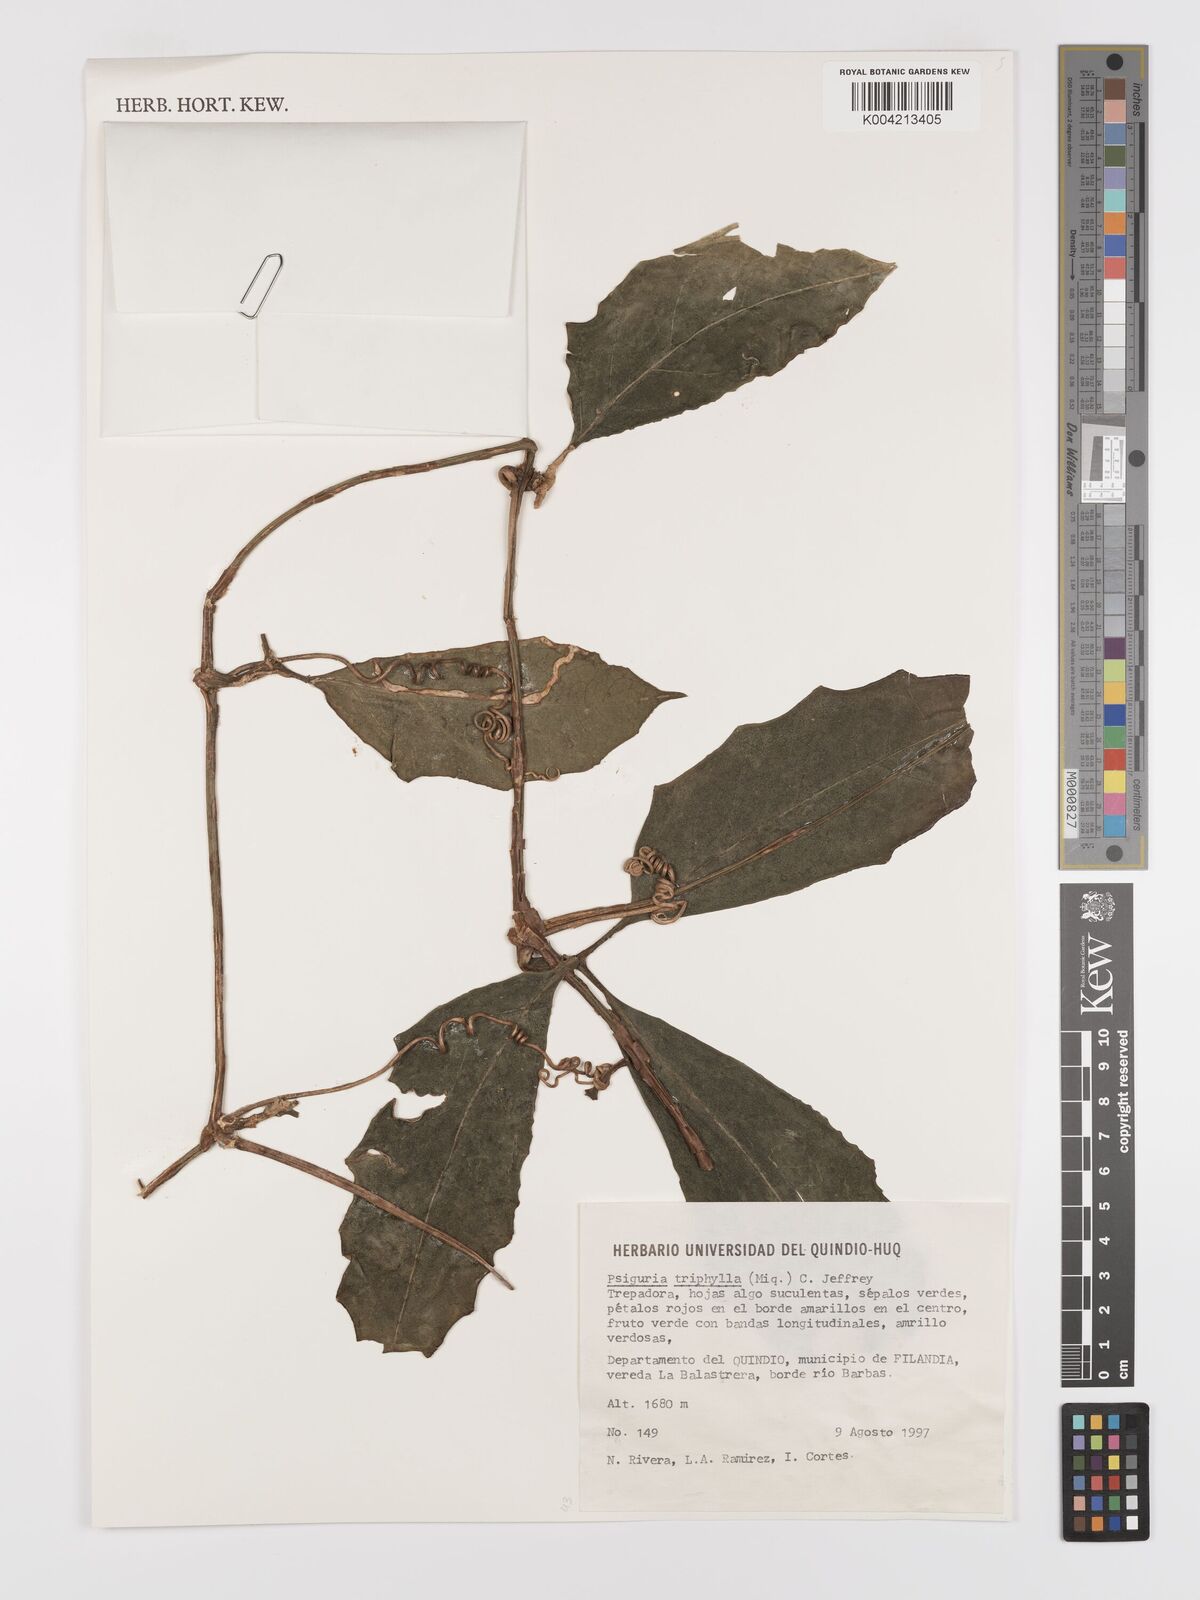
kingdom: Plantae
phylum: Tracheophyta
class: Magnoliopsida
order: Cucurbitales
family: Cucurbitaceae
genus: Psiguria
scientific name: Psiguria triphylla
